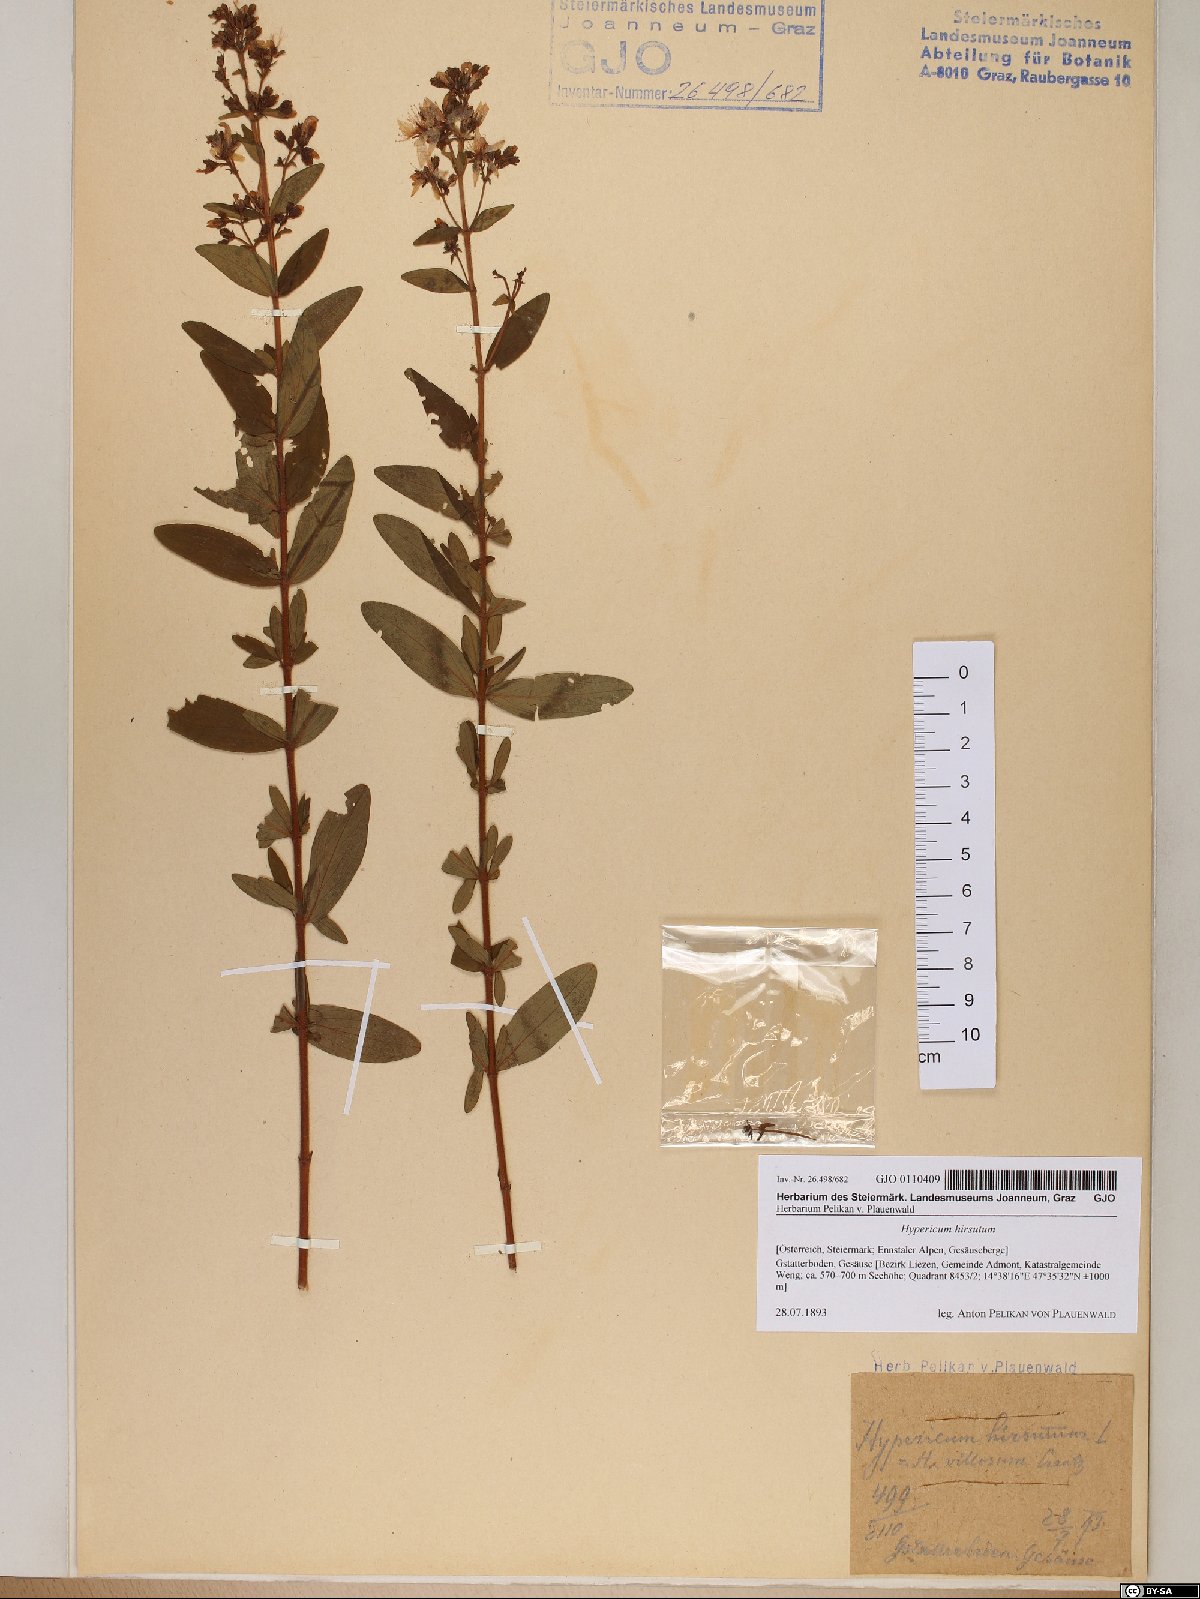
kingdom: Plantae
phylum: Tracheophyta
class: Magnoliopsida
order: Malpighiales
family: Hypericaceae
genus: Hypericum
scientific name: Hypericum hirsutum
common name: Hairy st. john's-wort
